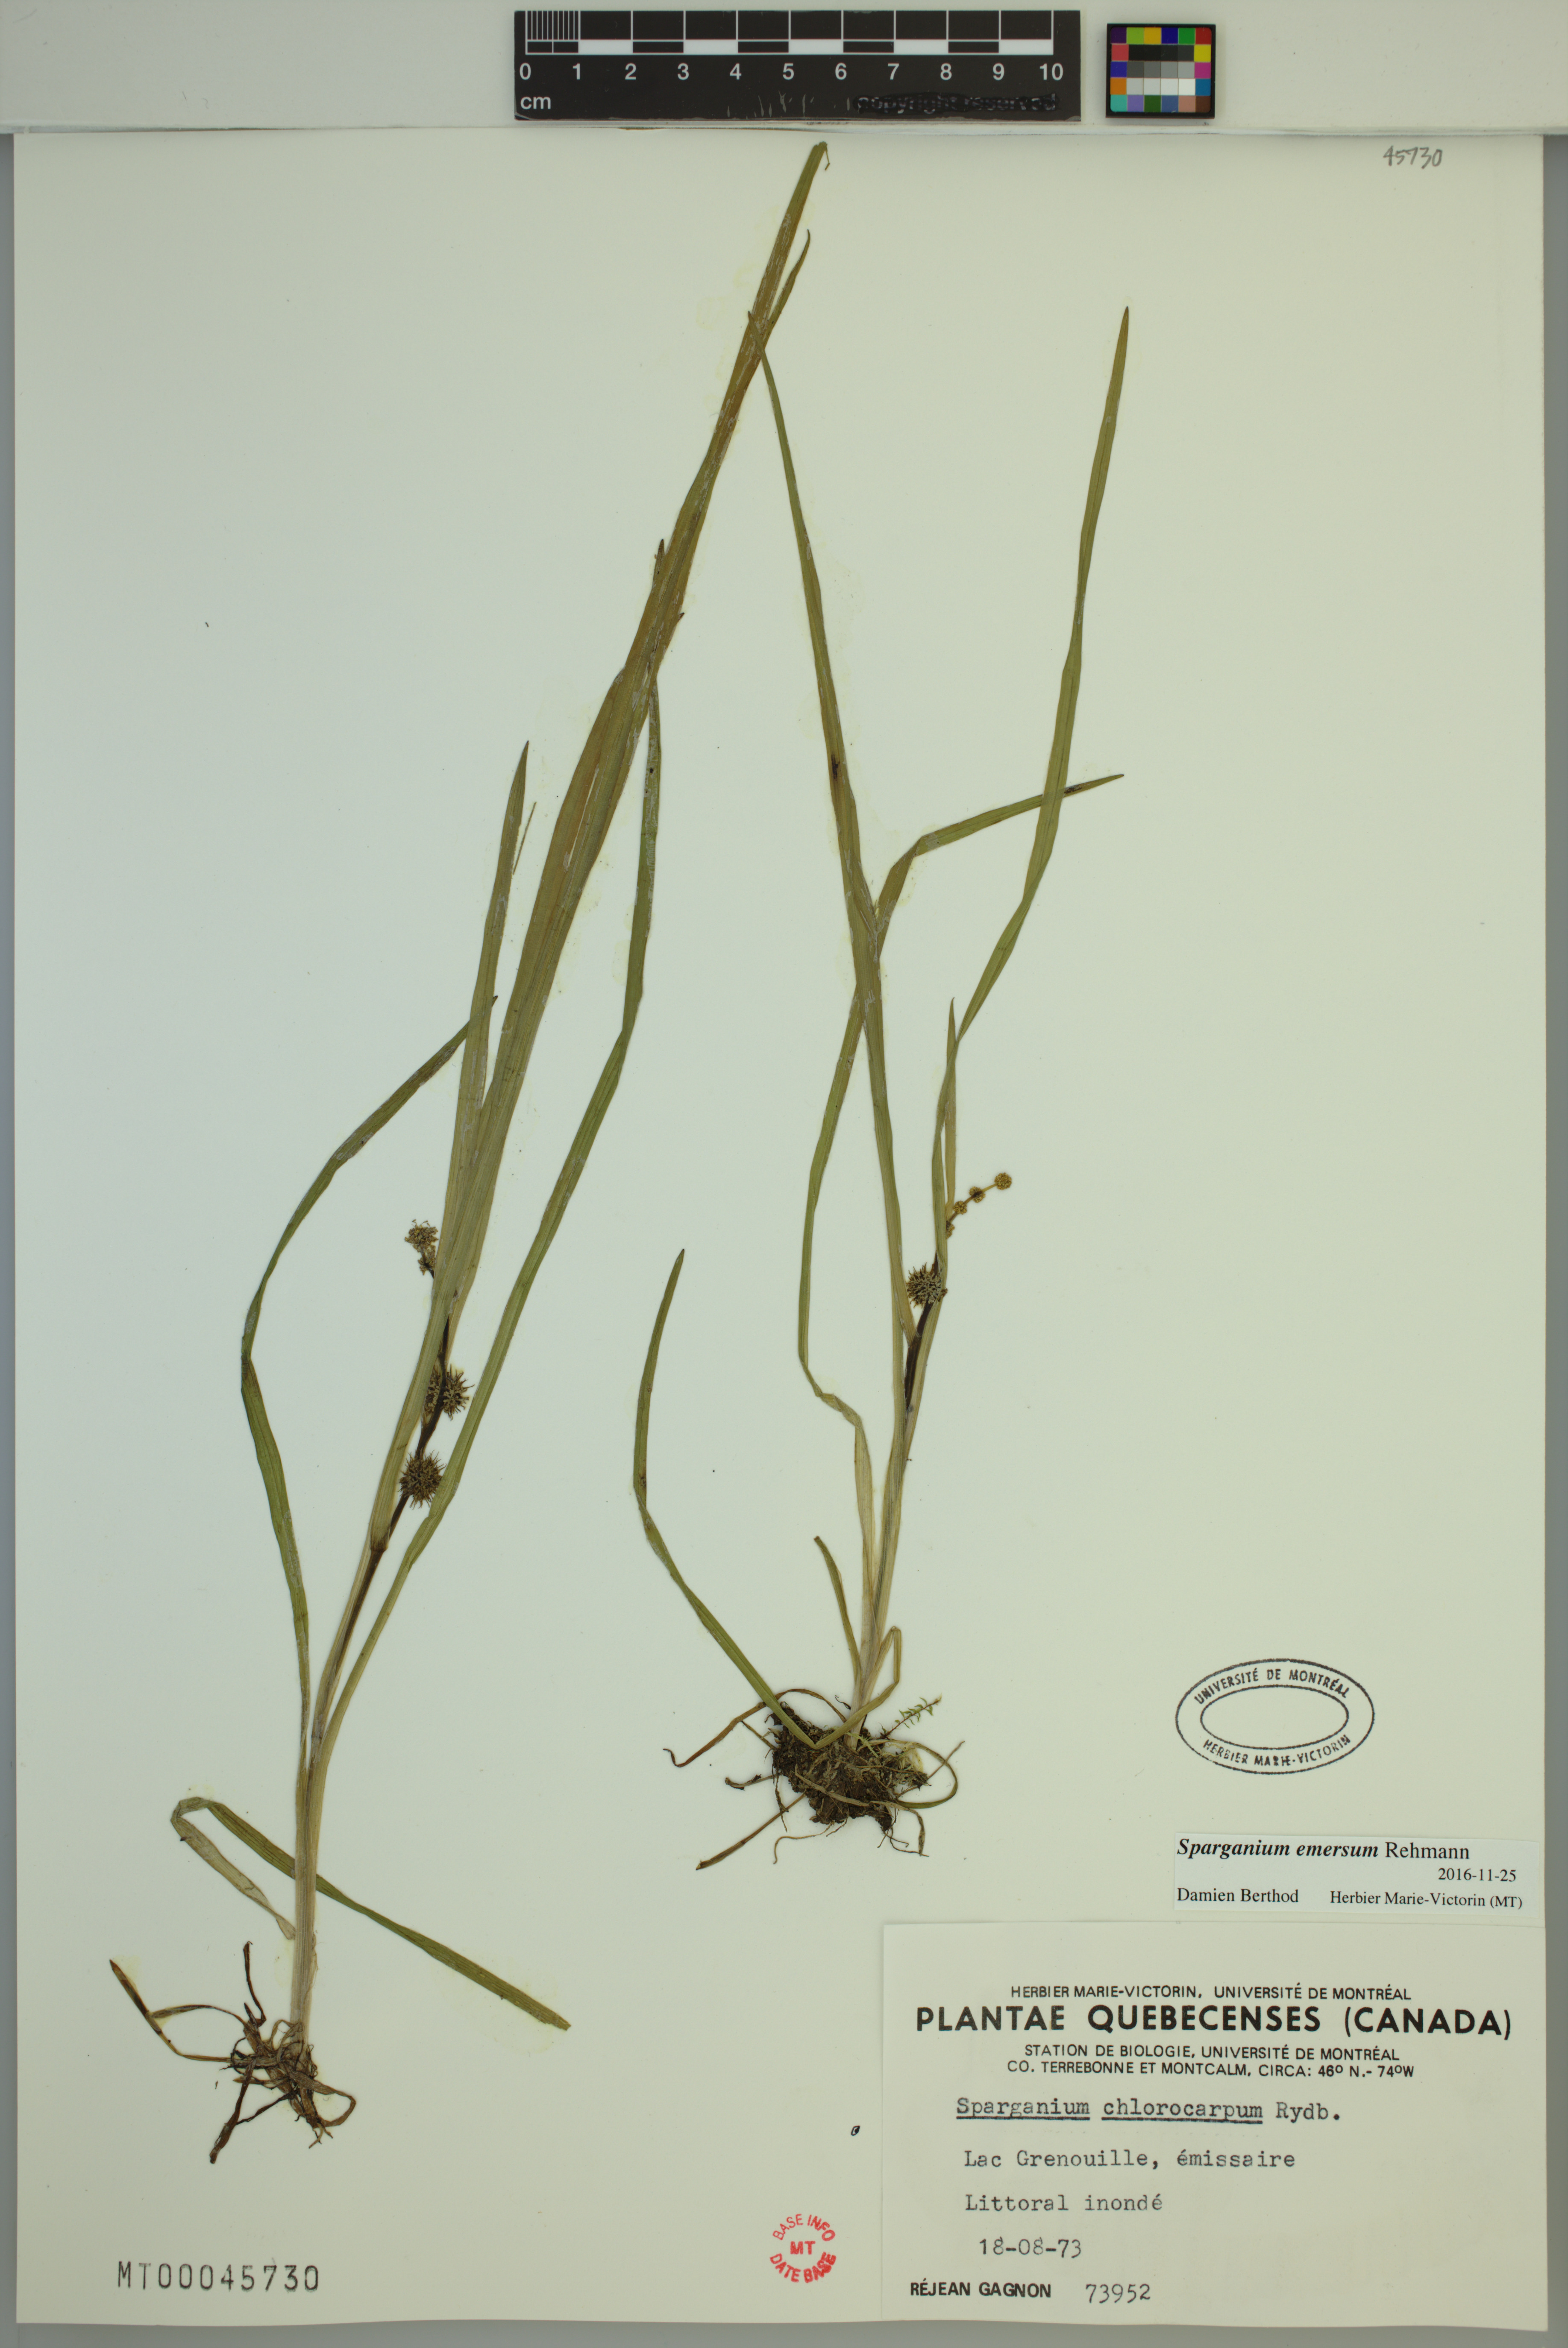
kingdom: Plantae
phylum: Tracheophyta
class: Liliopsida
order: Poales
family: Typhaceae
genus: Sparganium
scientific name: Sparganium emersum
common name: Unbranched bur-reed
